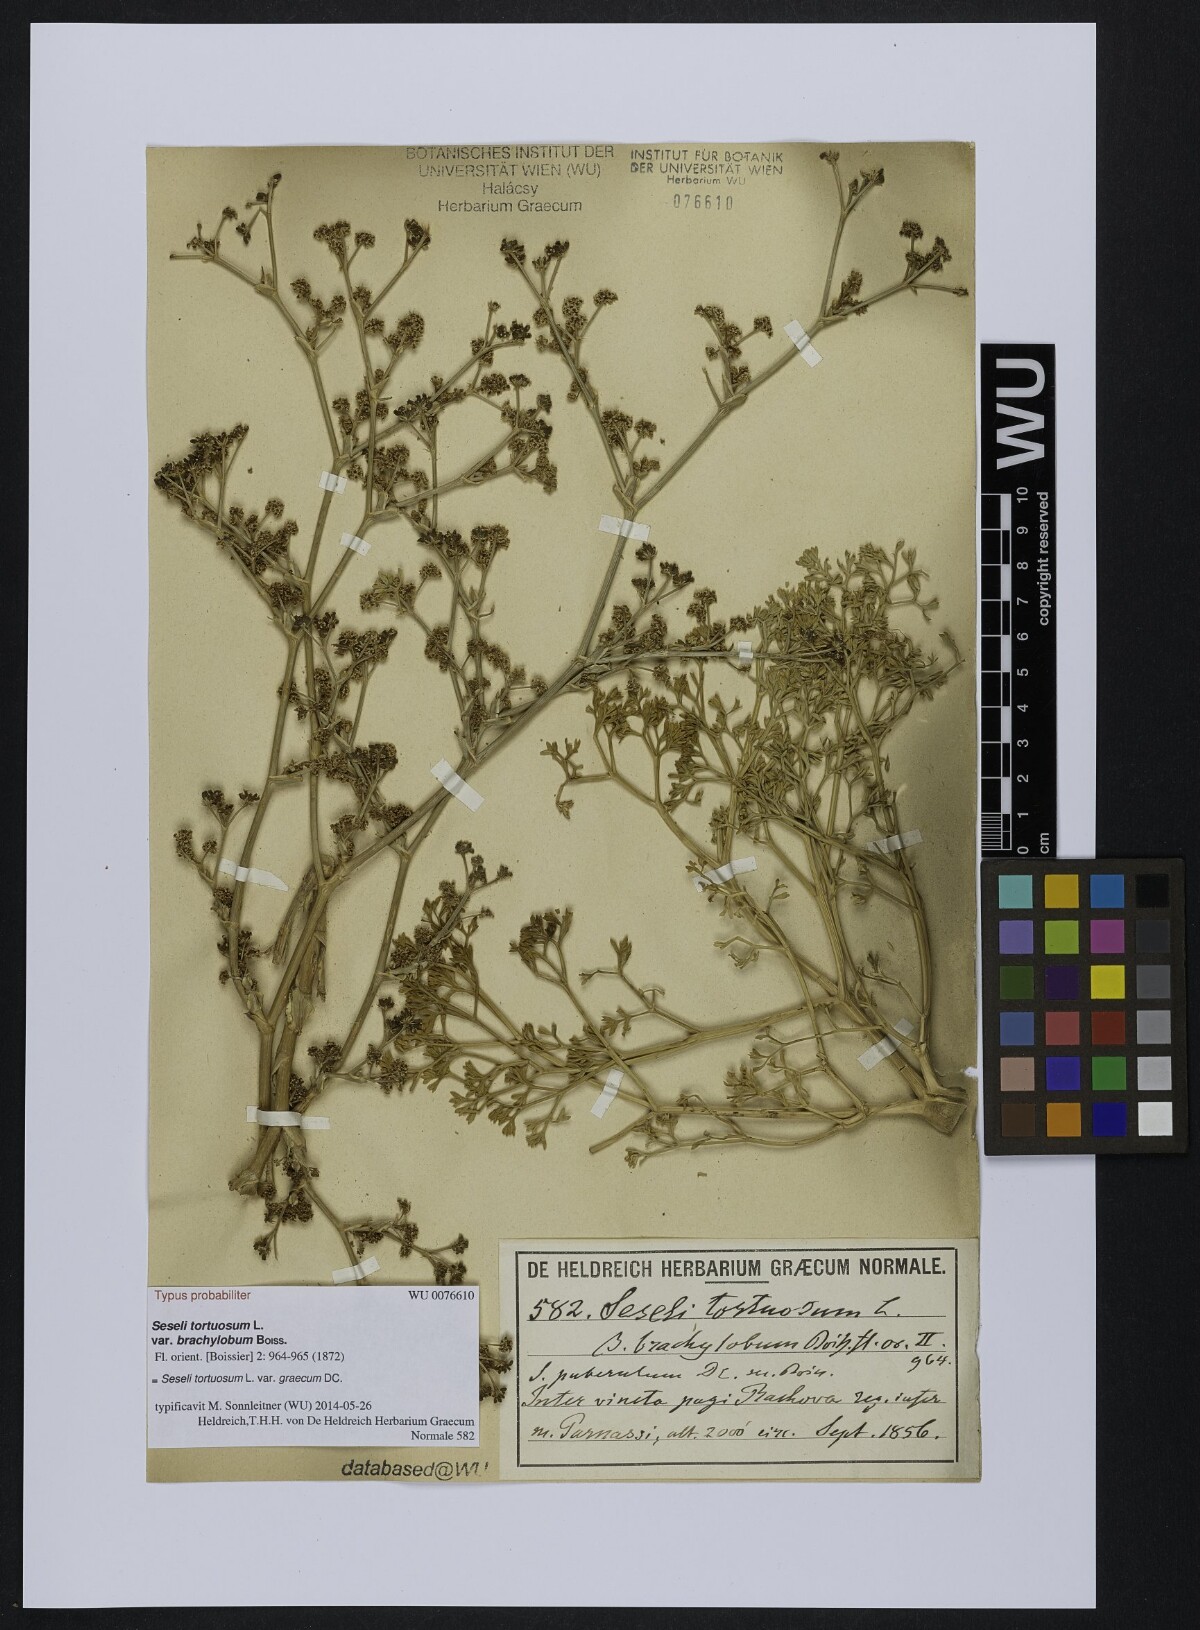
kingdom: Plantae
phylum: Tracheophyta
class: Magnoliopsida
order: Apiales
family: Apiaceae
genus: Seseli
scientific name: Seseli arenarium
